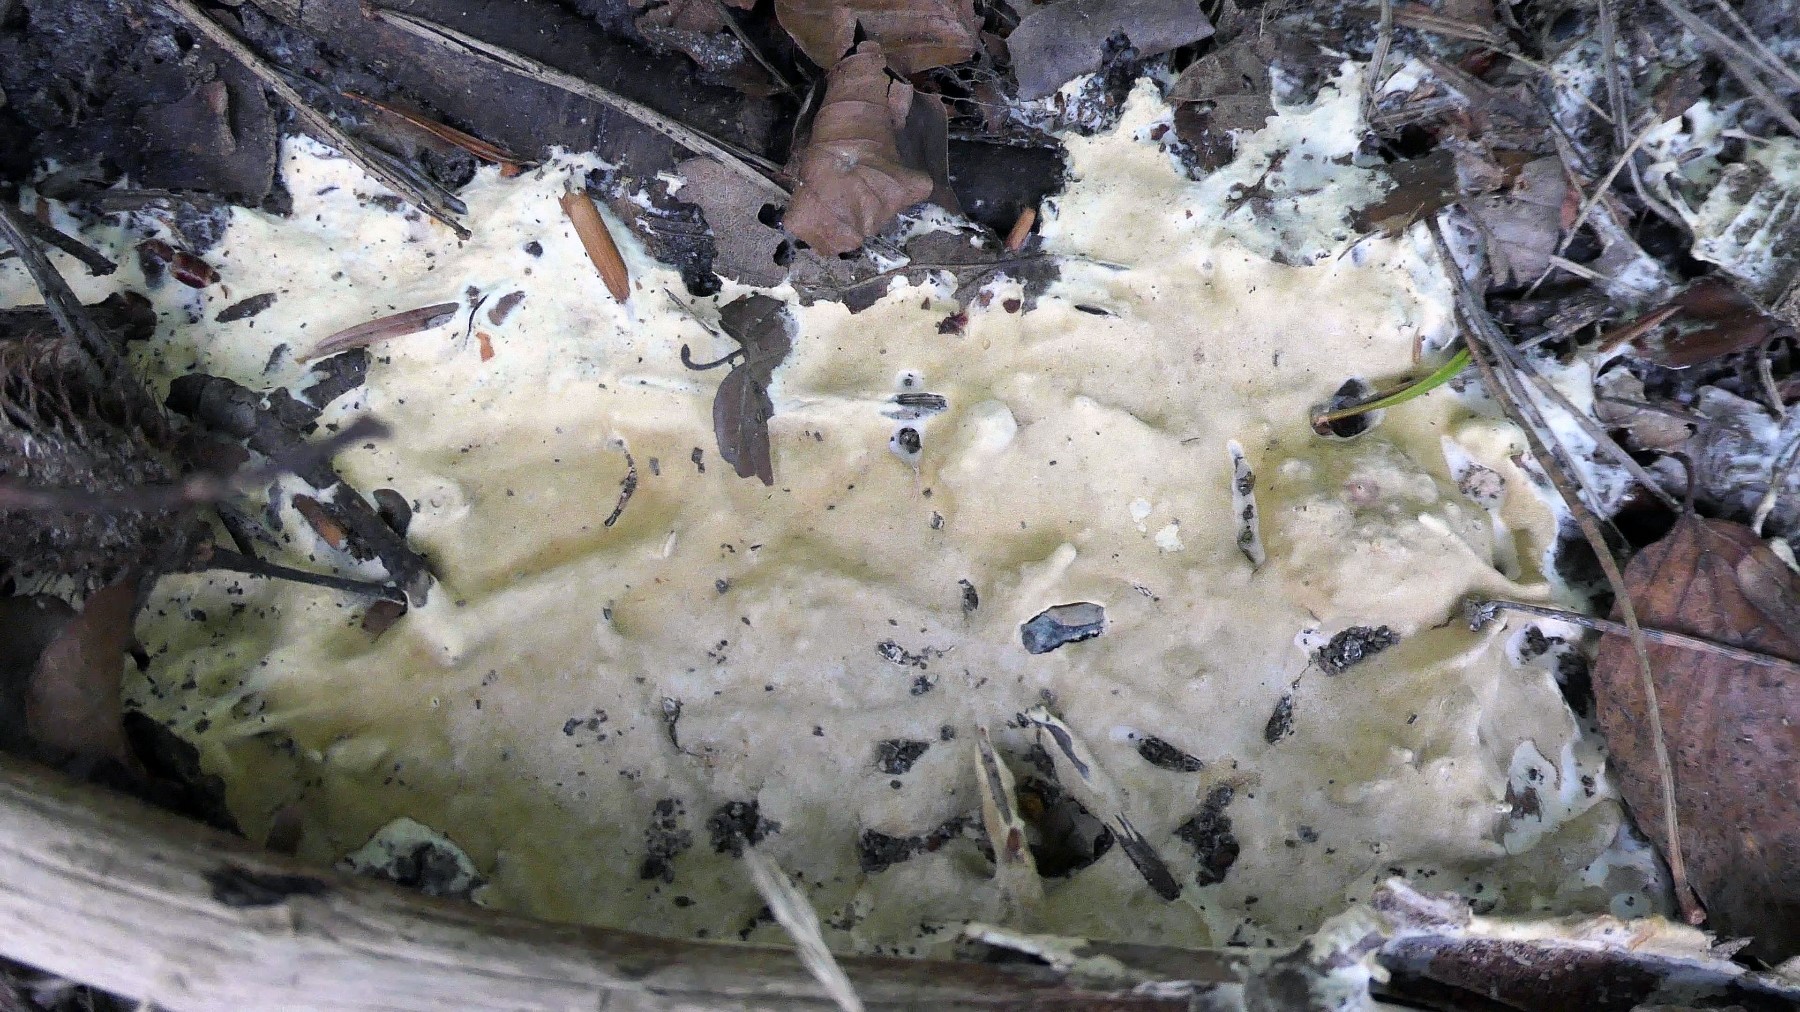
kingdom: Fungi
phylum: Ascomycota
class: Sordariomycetes
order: Hypocreales
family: Hypocreaceae
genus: Trichoderma
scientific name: Trichoderma citrinum
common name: udbredt kødkerne
